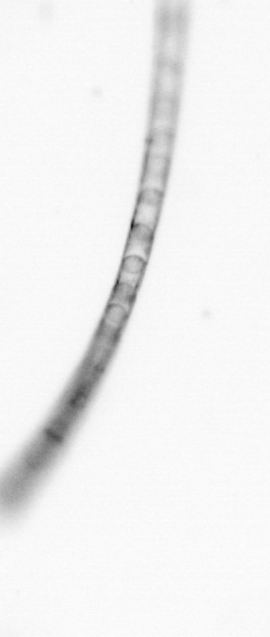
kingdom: Chromista
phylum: Ochrophyta
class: Bacillariophyceae
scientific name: Bacillariophyceae
